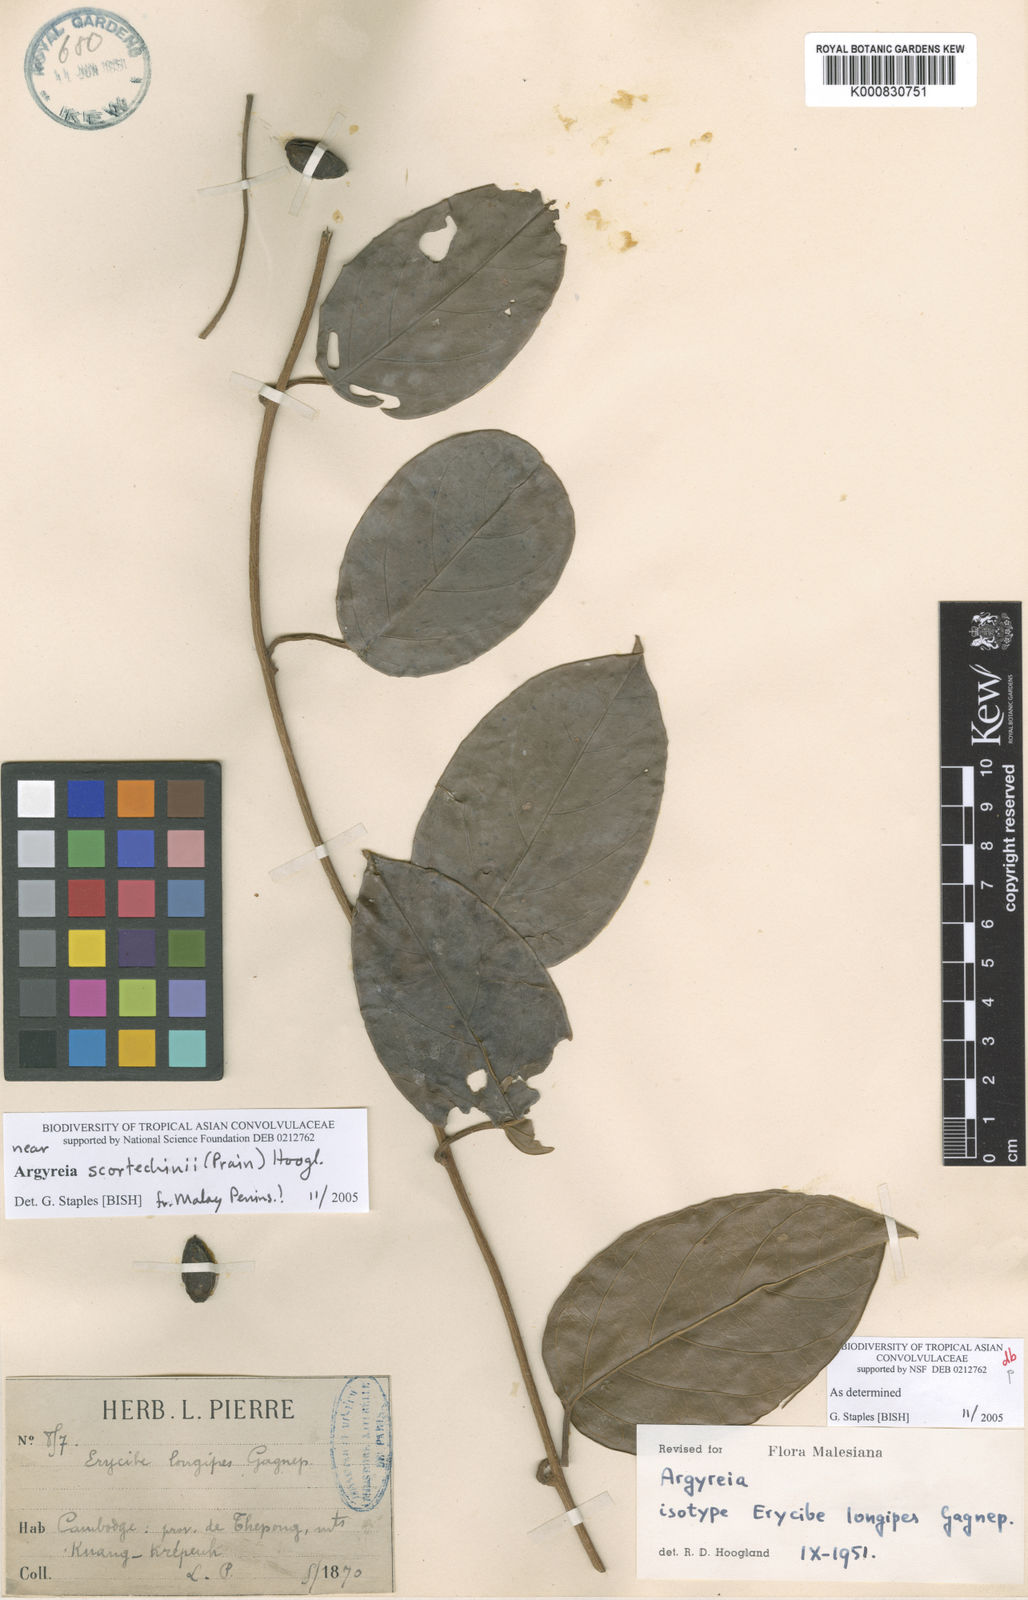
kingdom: Plantae
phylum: Tracheophyta
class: Magnoliopsida
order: Solanales
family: Convolvulaceae
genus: Argyreia
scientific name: Argyreia scortechinii
